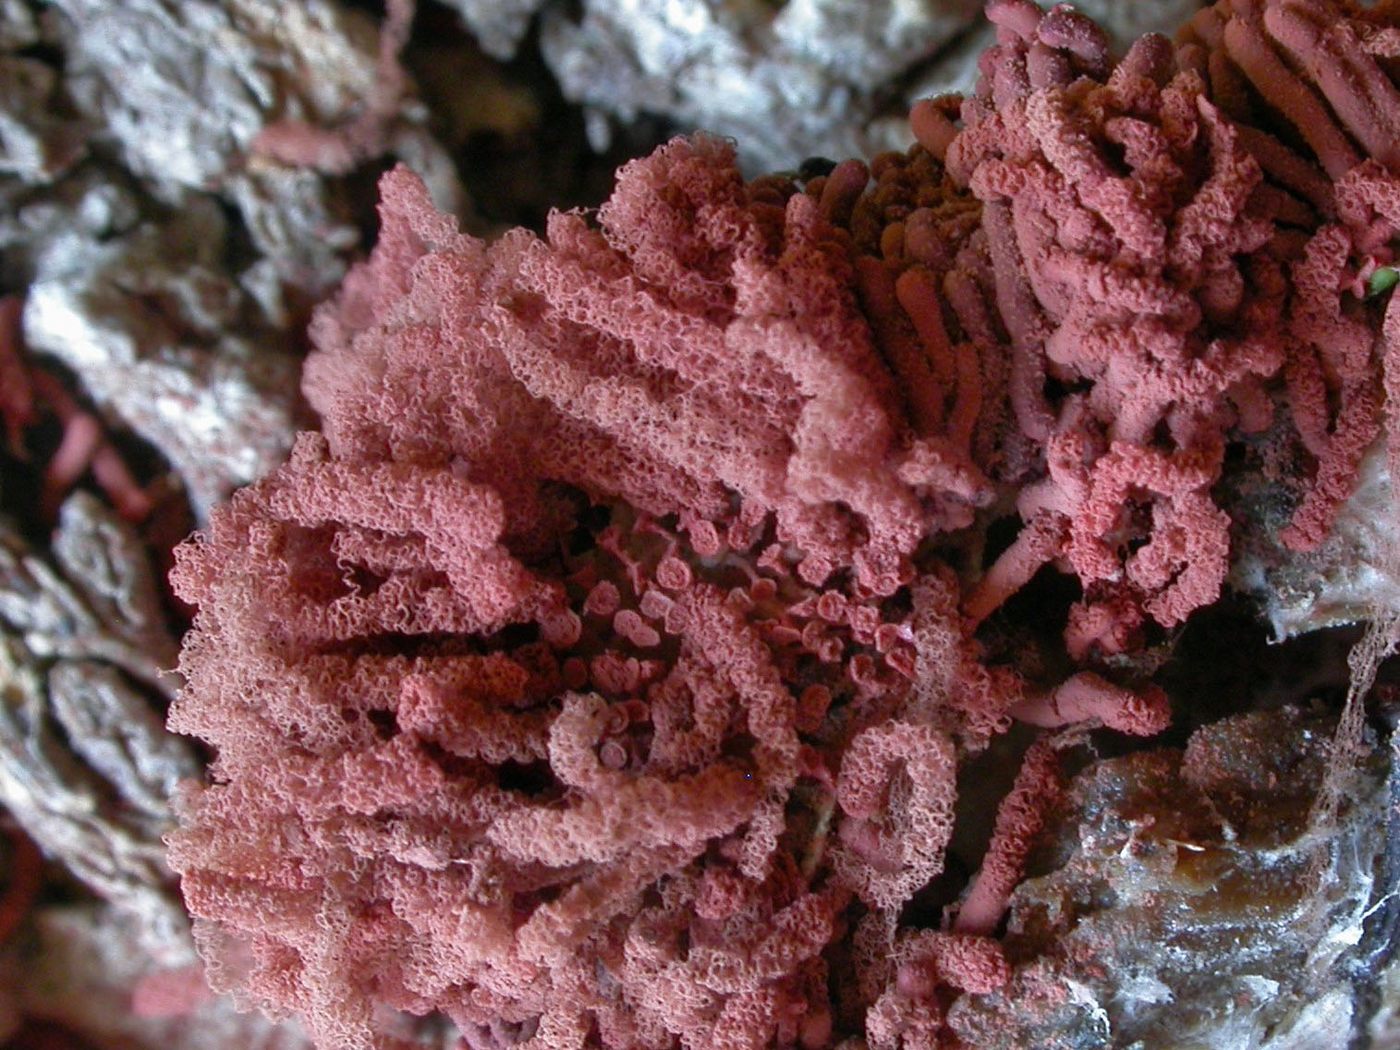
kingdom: Protozoa
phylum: Amoebozoa
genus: Arcyria
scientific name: Arcyria oerstedtii
